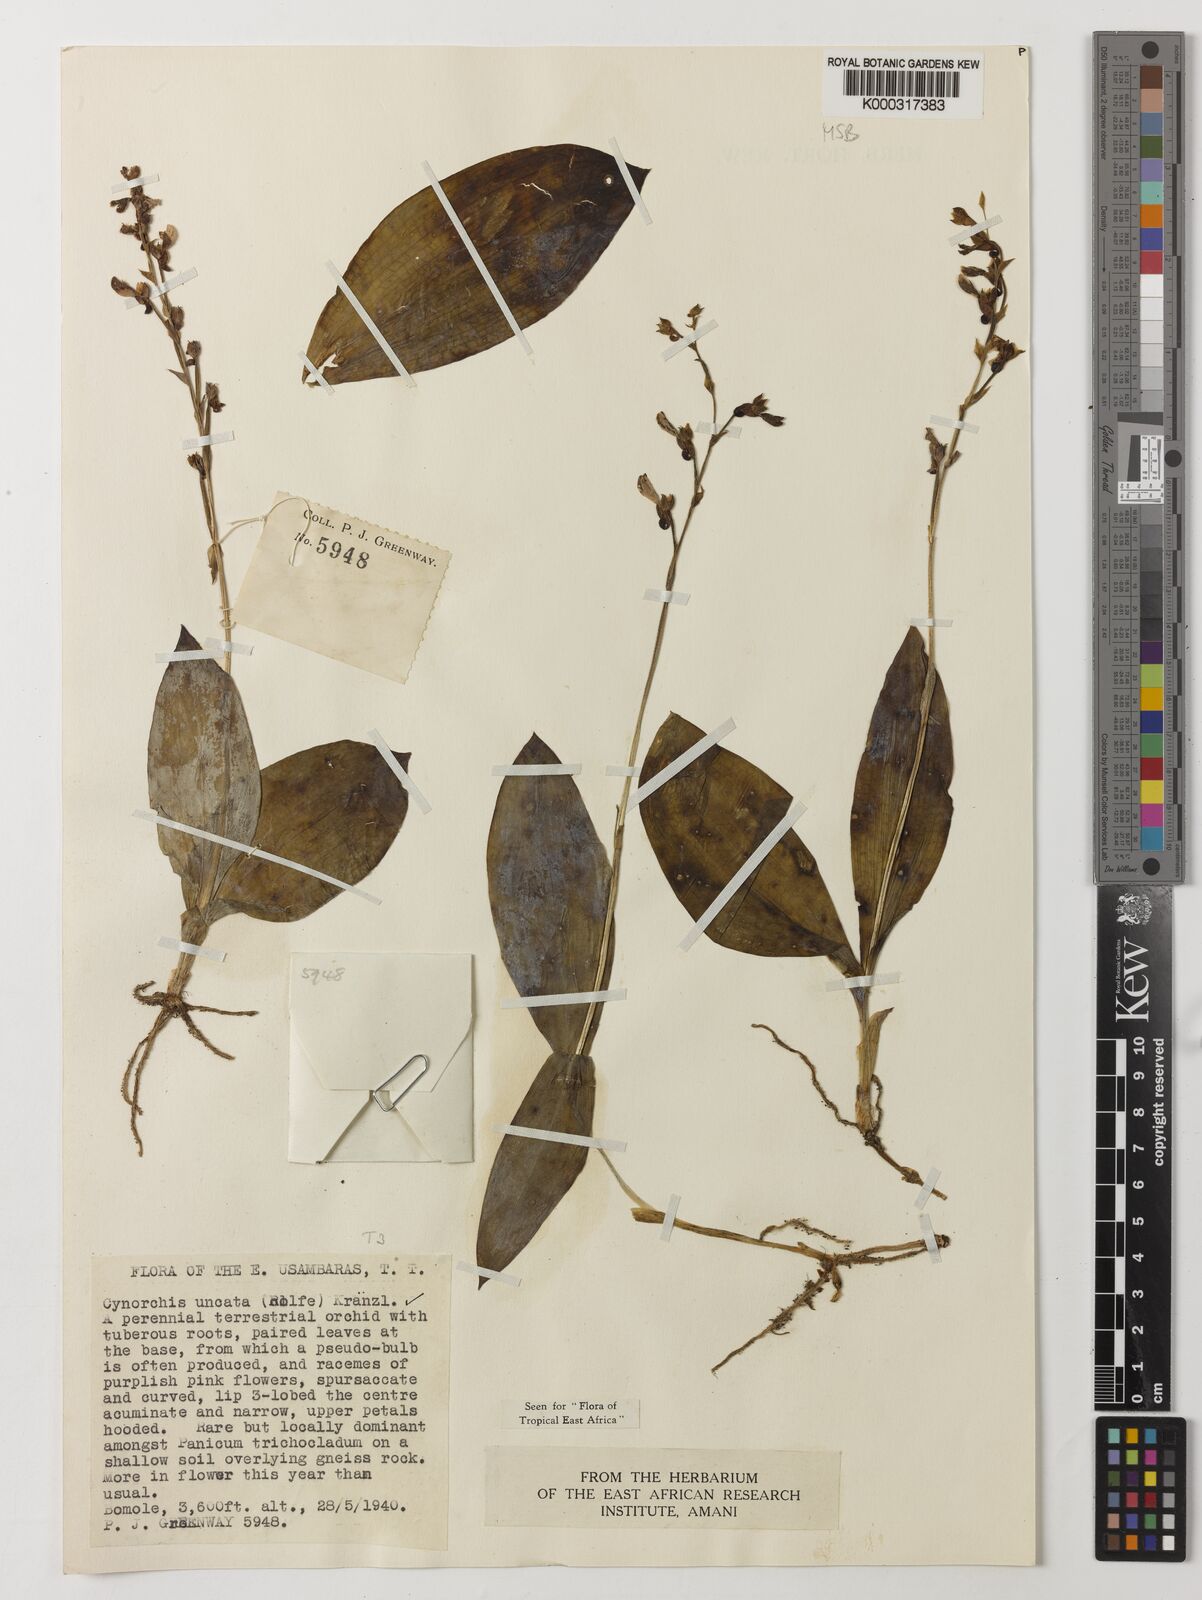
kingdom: Plantae
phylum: Tracheophyta
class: Liliopsida
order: Asparagales
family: Orchidaceae
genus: Cynorkis
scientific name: Cynorkis uncata
